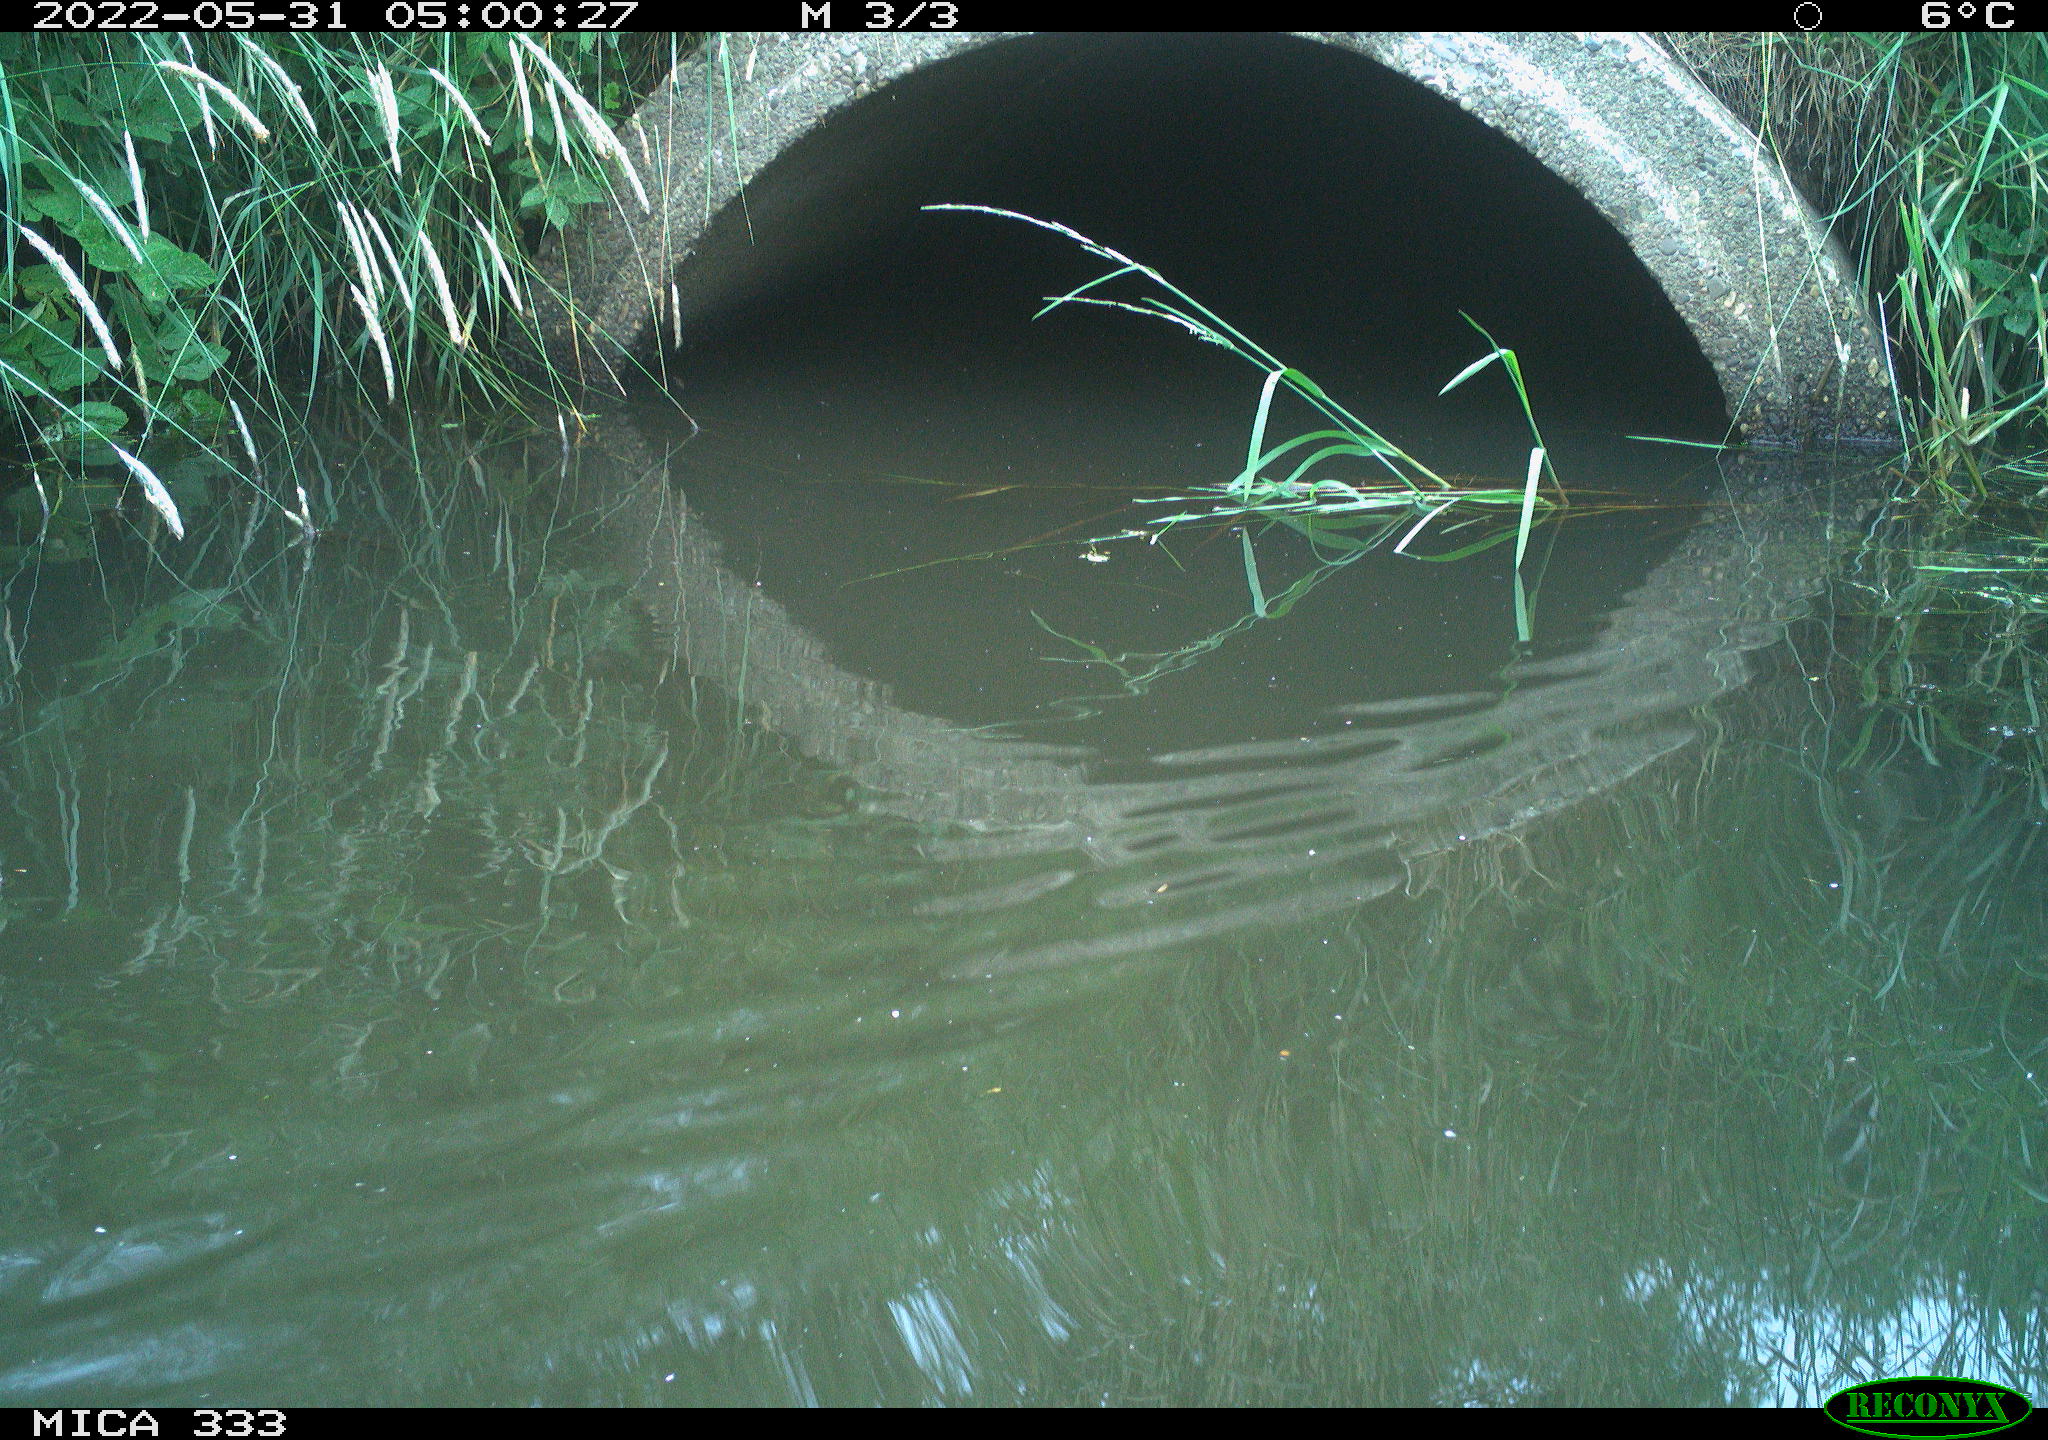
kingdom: Animalia
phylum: Chordata
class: Aves
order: Anseriformes
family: Anatidae
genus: Anas
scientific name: Anas platyrhynchos
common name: Mallard
